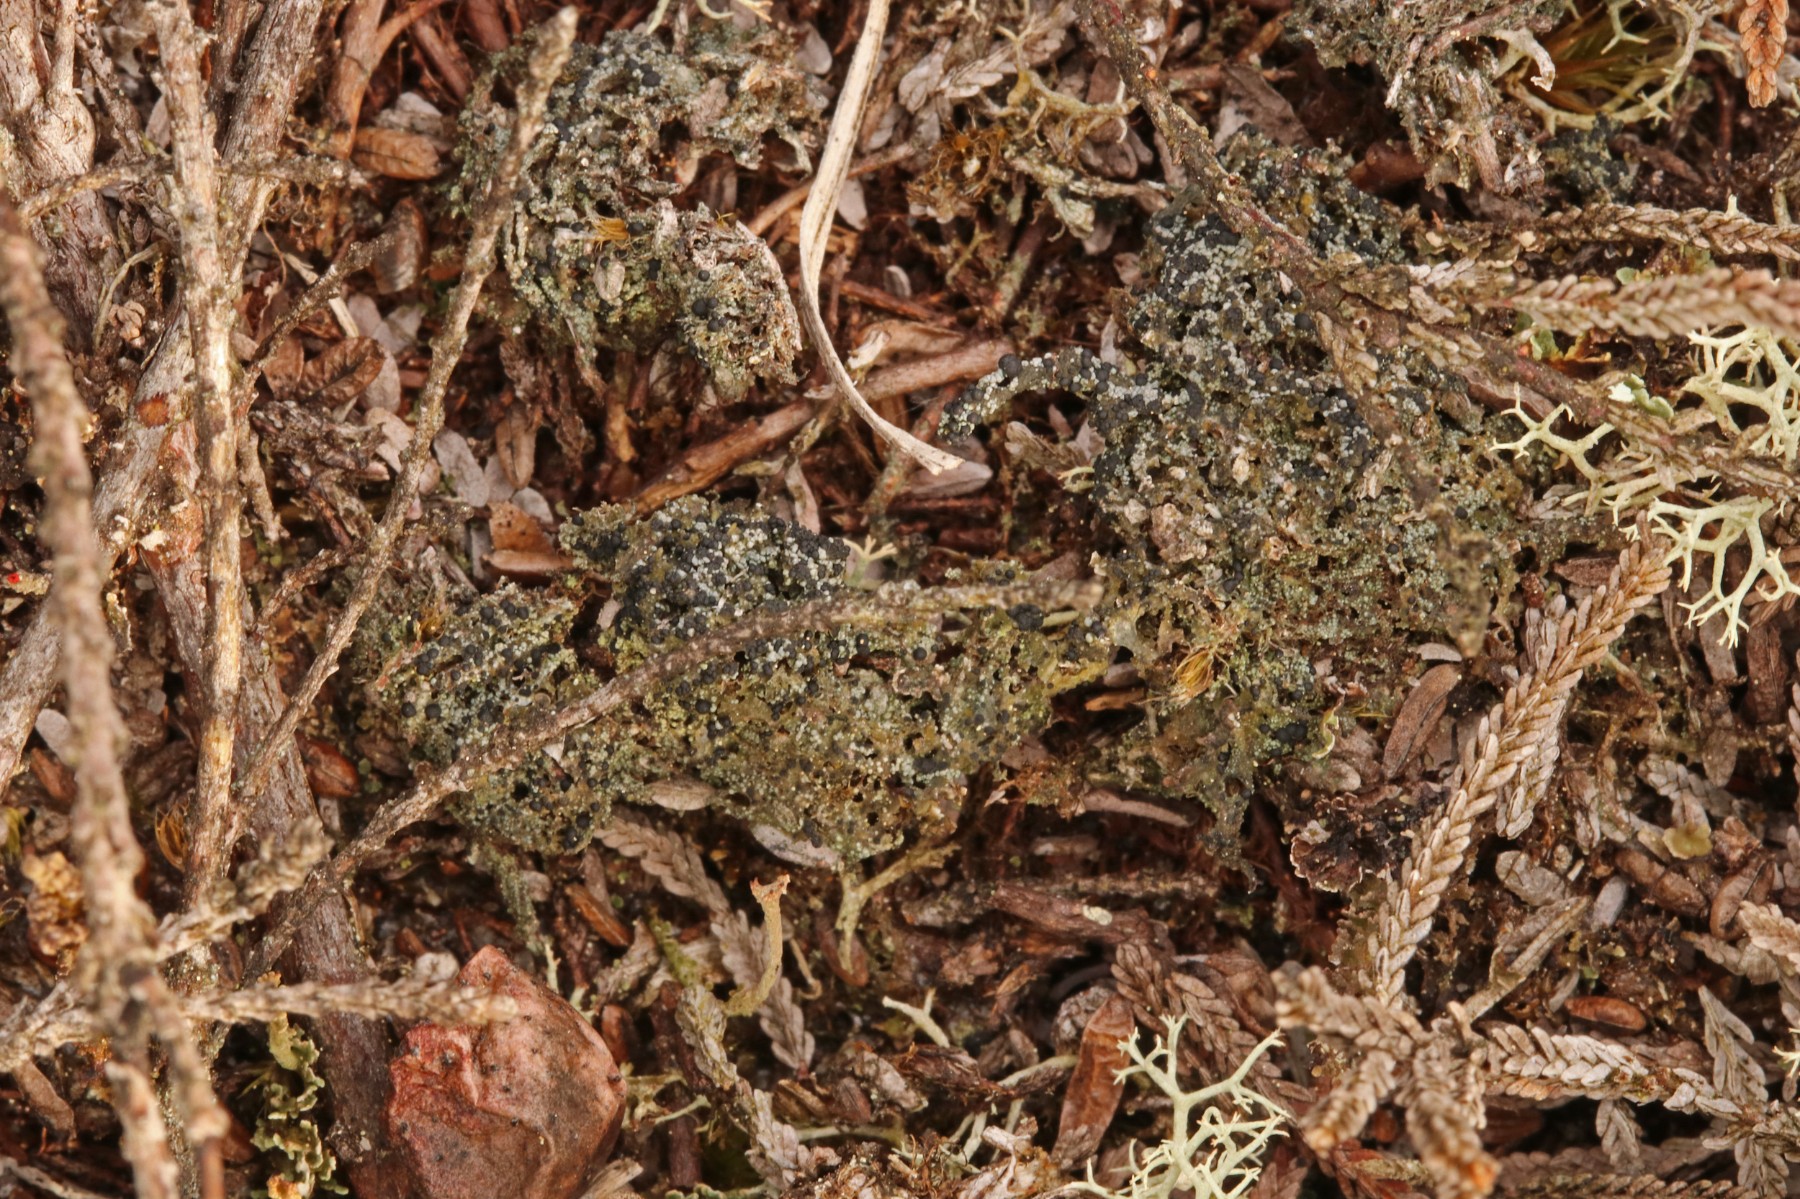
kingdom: Fungi
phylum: Ascomycota
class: Lecanoromycetes
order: Lecanorales
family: Byssolomataceae
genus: Micarea
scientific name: Micarea lignaria
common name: tørve-knaplav
